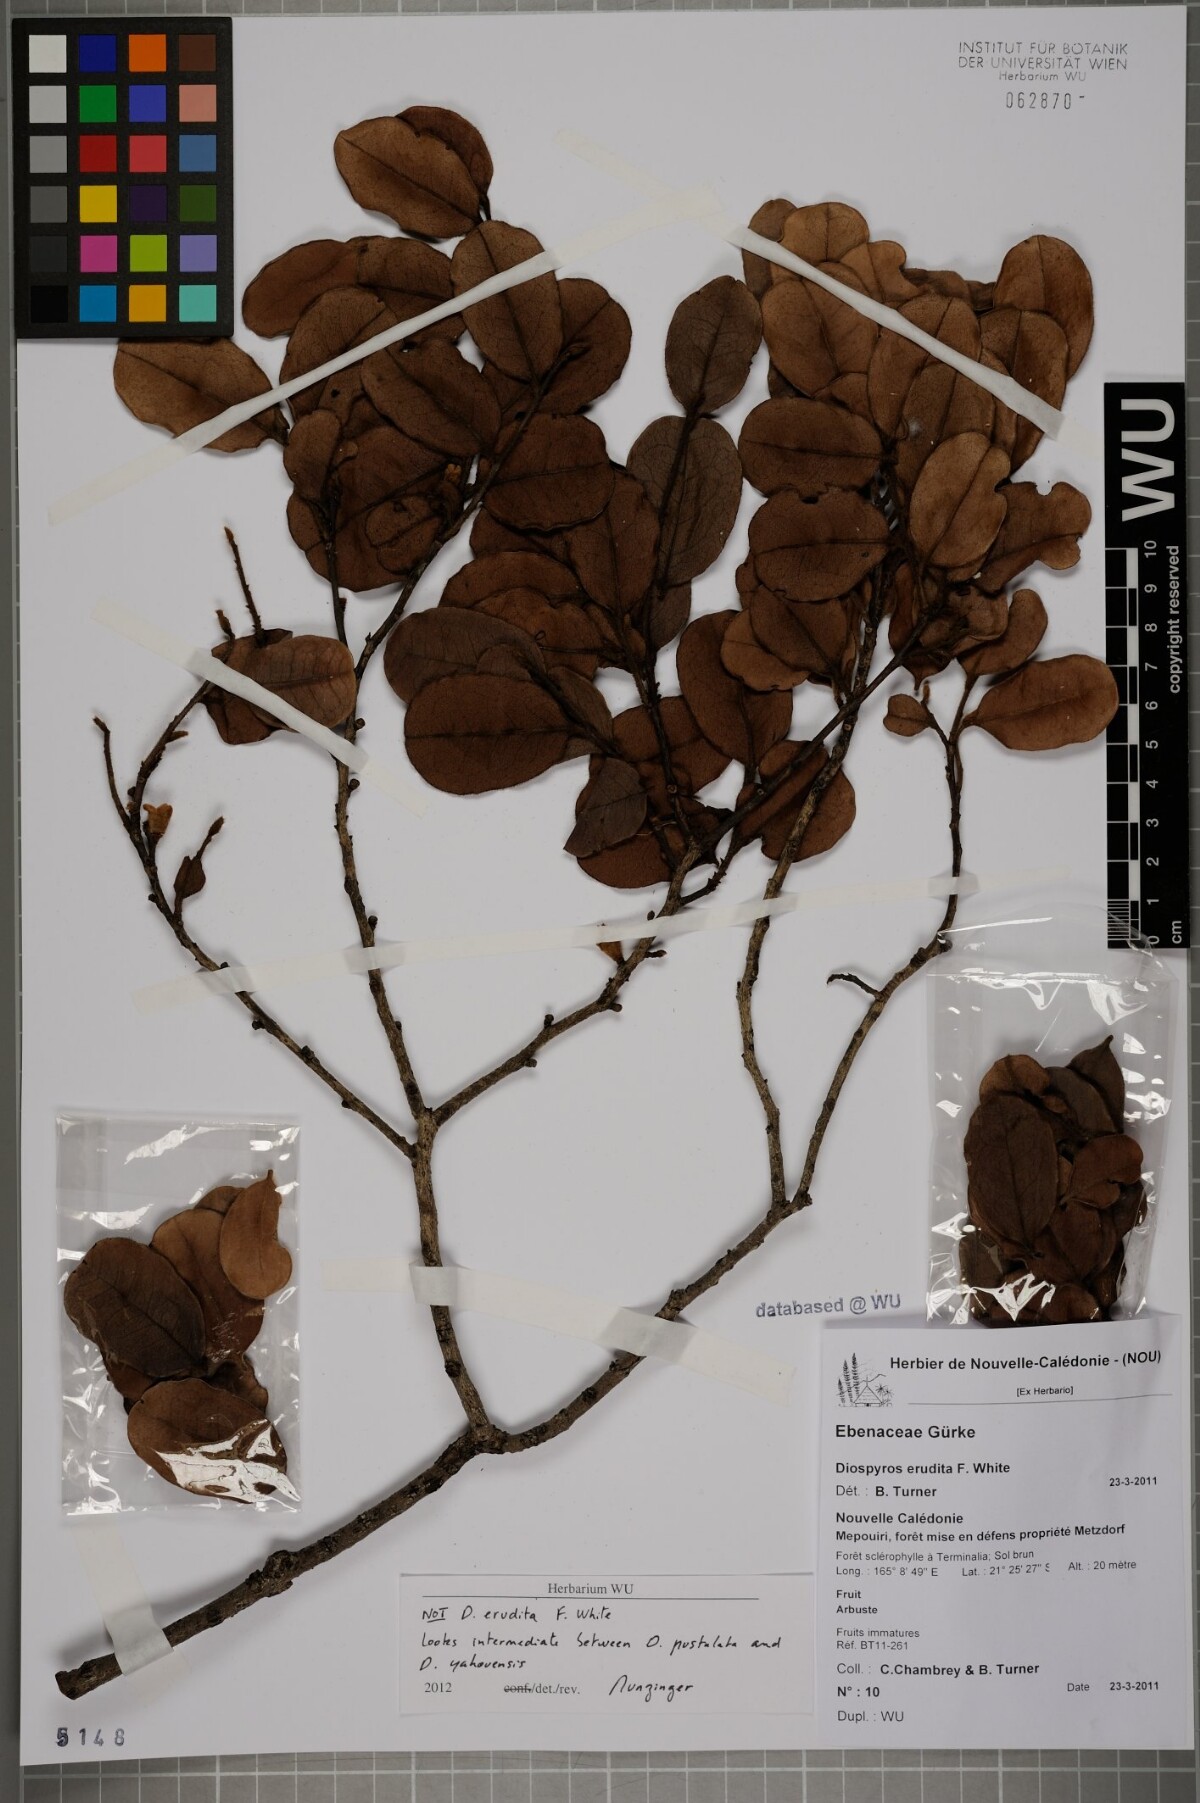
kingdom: Plantae
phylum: Tracheophyta
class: Magnoliopsida
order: Ericales
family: Ebenaceae
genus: Diospyros
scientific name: Diospyros
